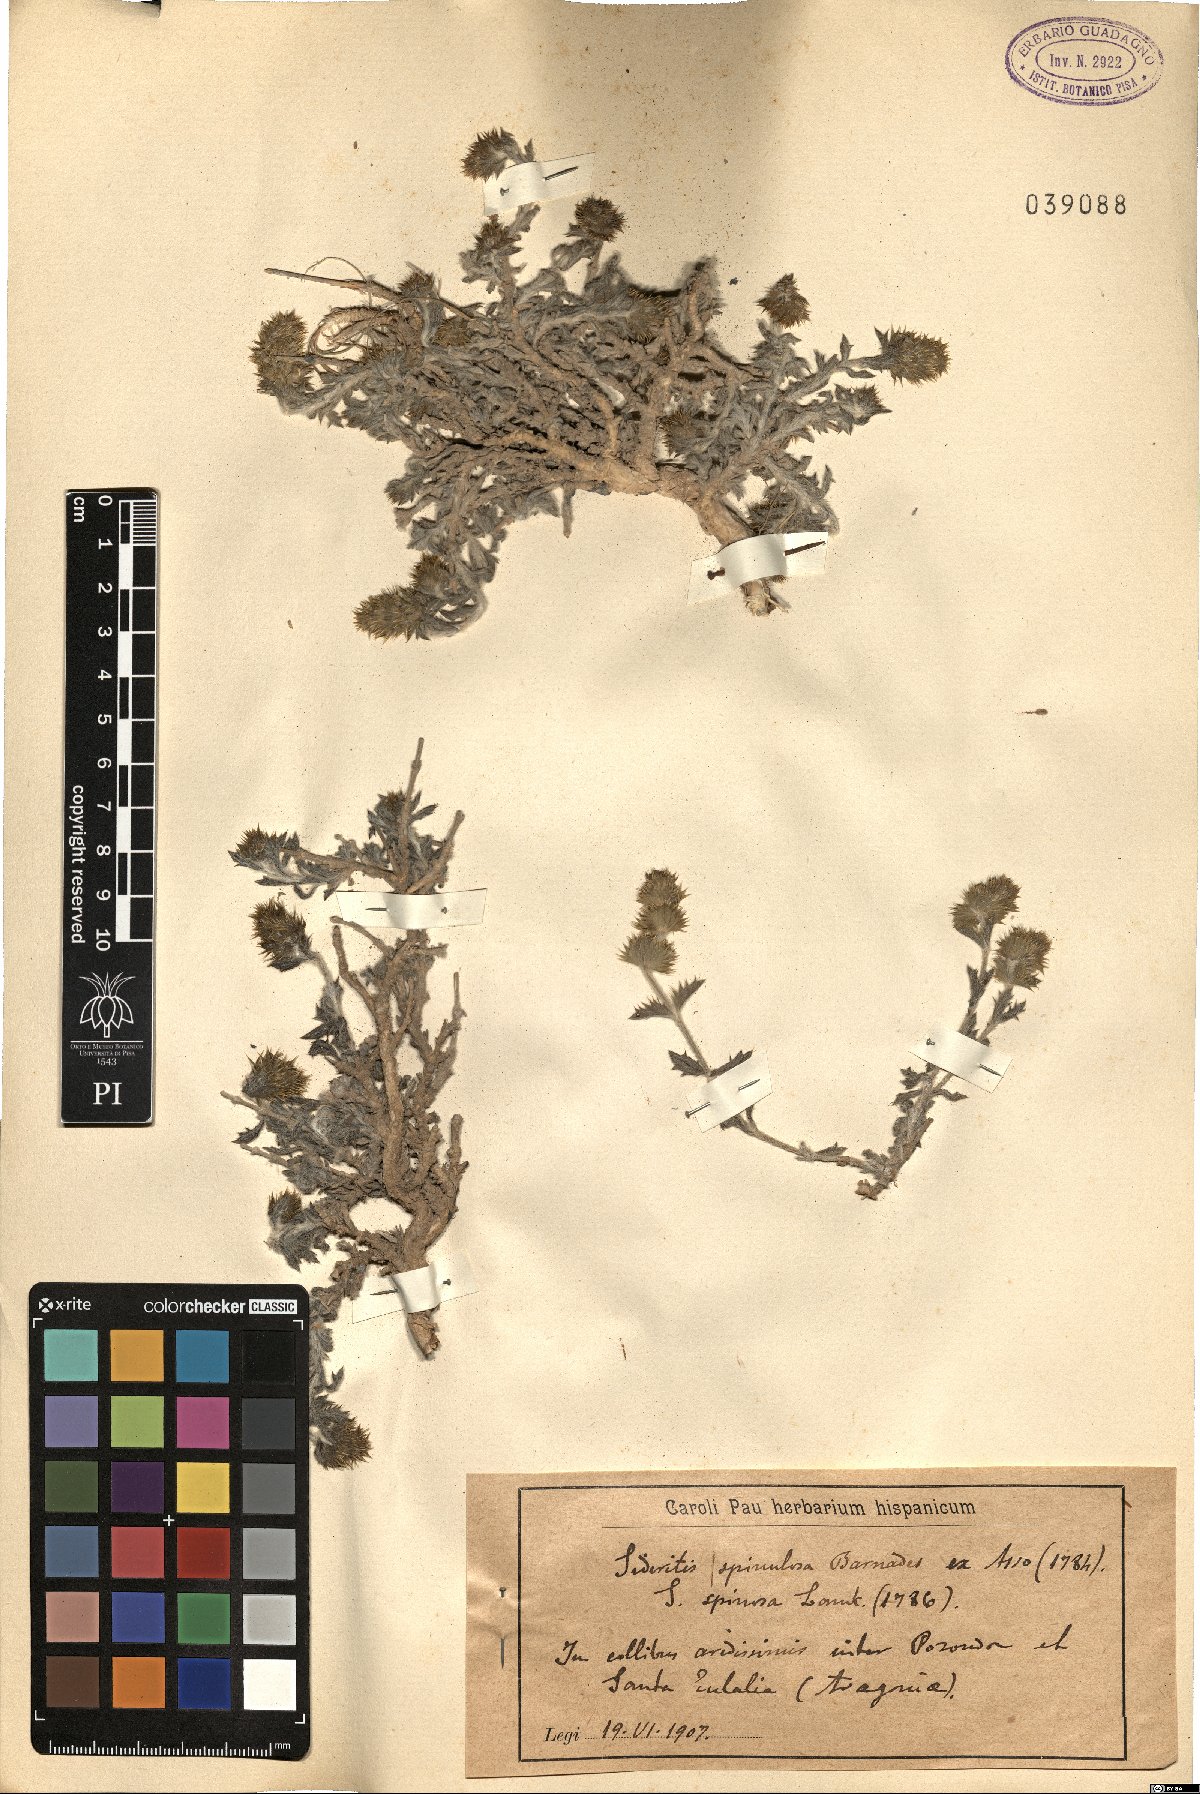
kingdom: Plantae
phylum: Tracheophyta
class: Magnoliopsida
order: Lamiales
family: Lamiaceae
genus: Sideritis
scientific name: Sideritis spinulosa
